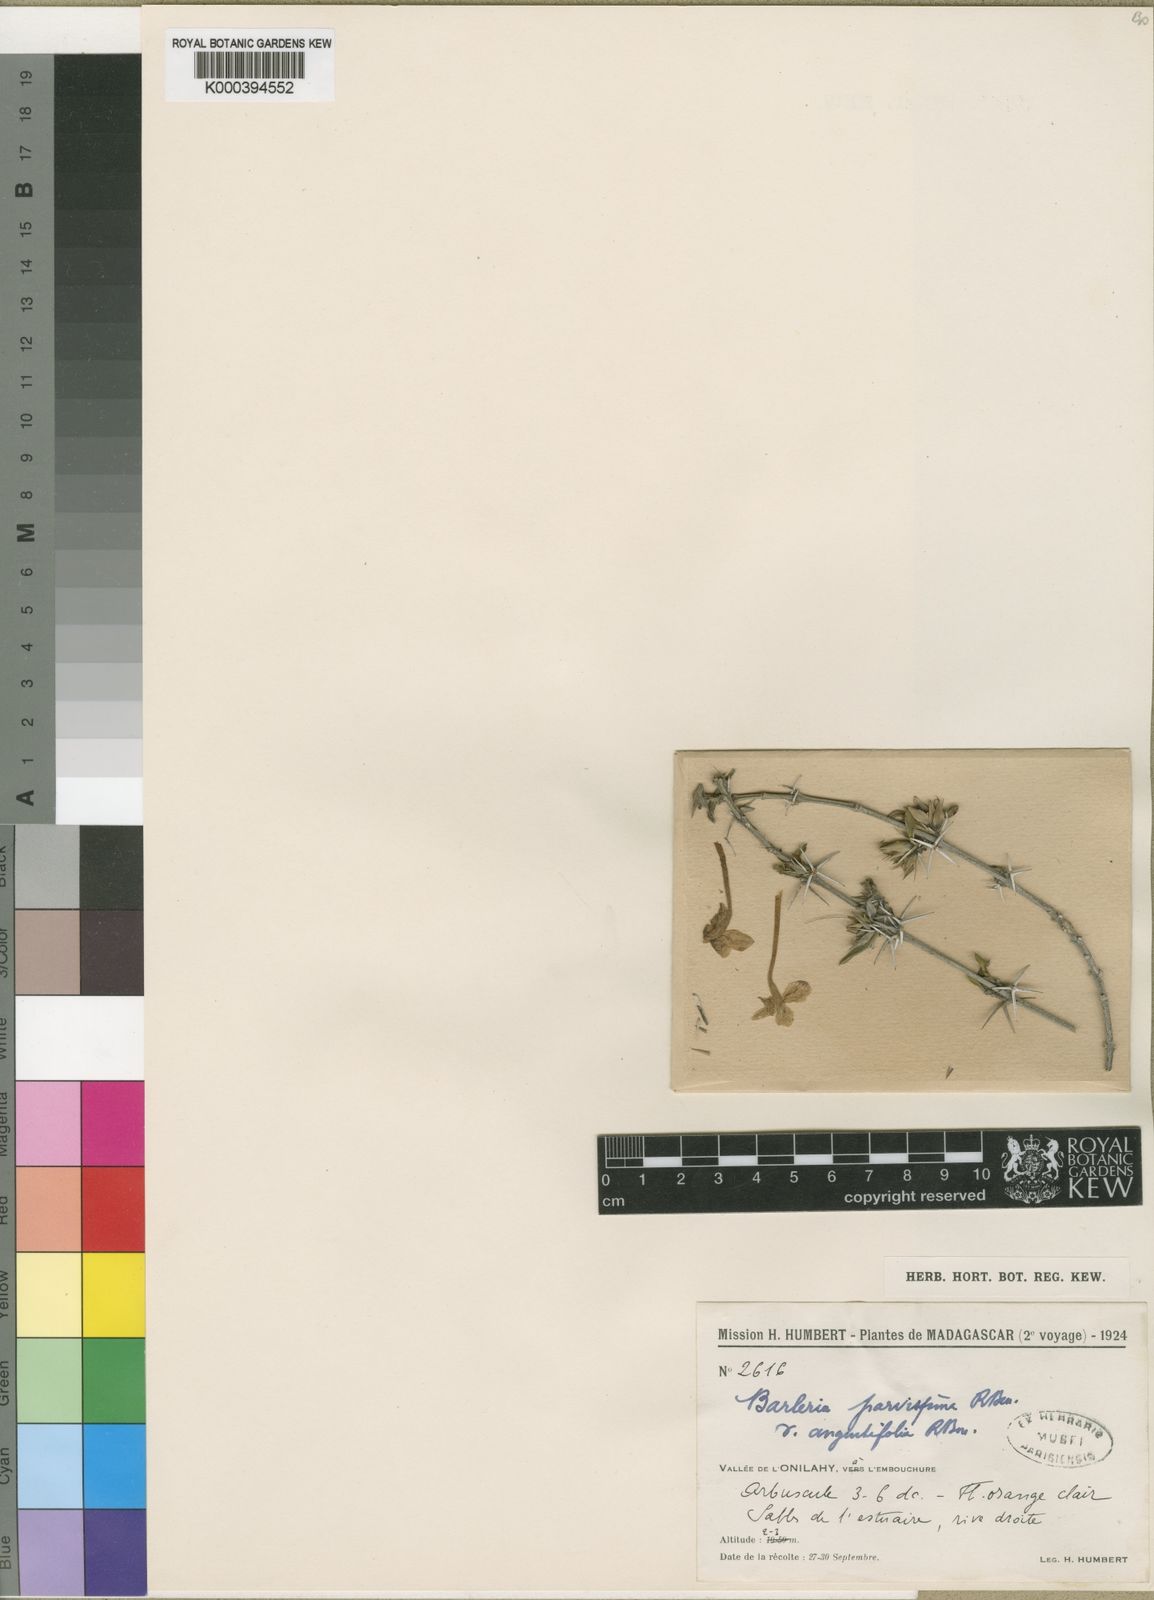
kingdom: Plantae
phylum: Tracheophyta
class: Magnoliopsida
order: Lamiales
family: Acanthaceae
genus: Barleria
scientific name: Barleria parvispina
